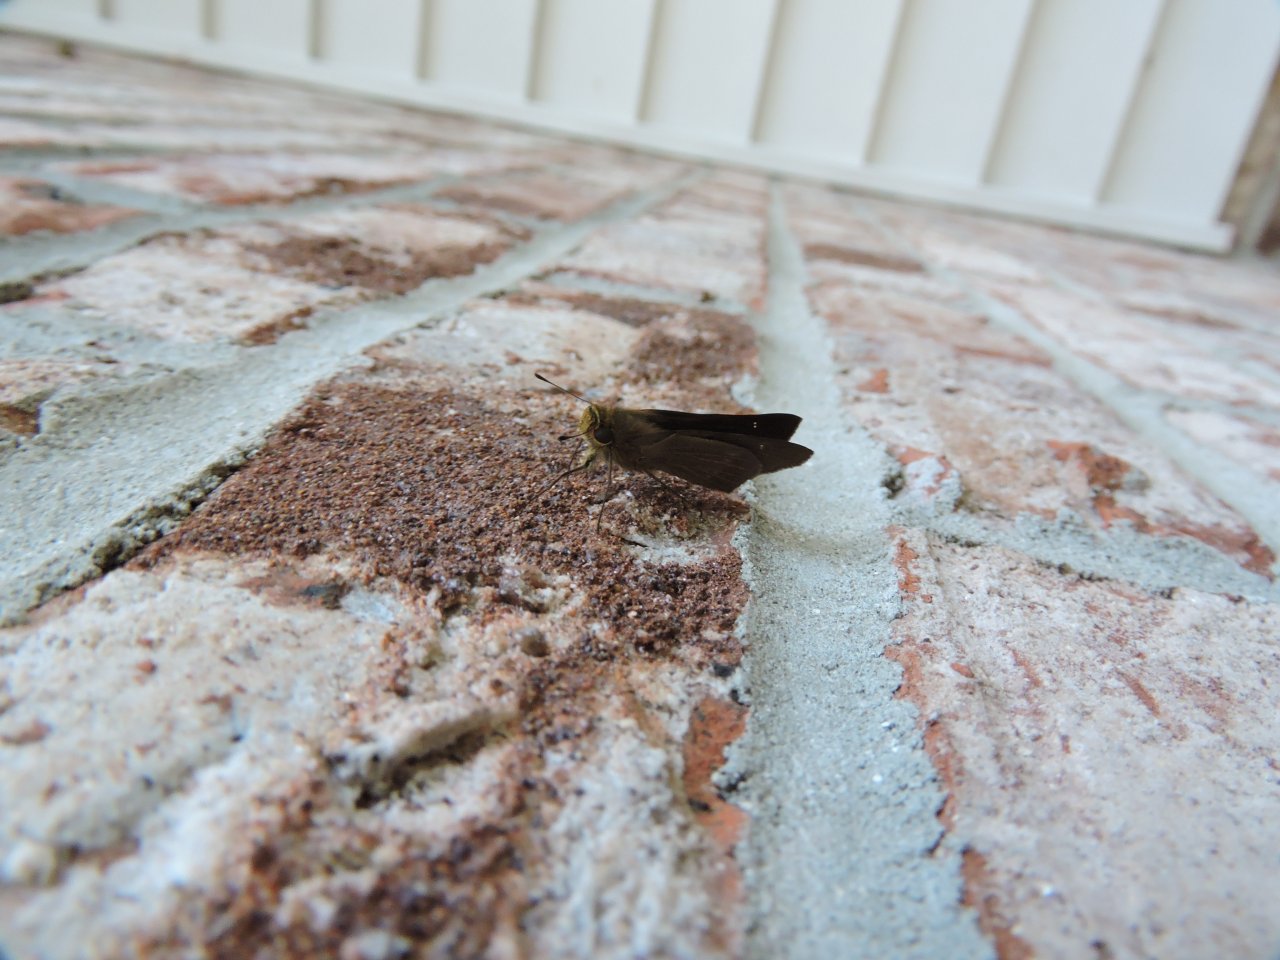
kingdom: Animalia
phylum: Arthropoda
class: Insecta
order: Lepidoptera
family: Hesperiidae
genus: Panoquina
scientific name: Panoquina ocola
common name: Ocola Skipper
